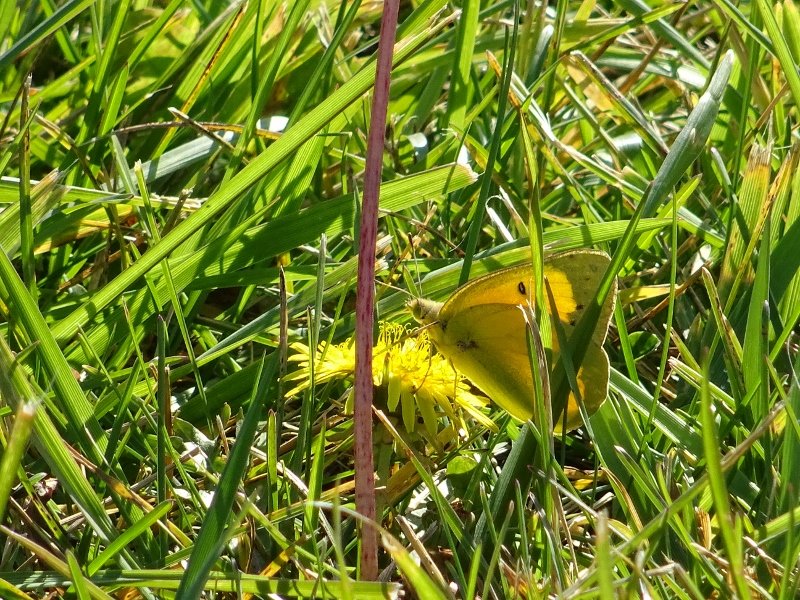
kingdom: Animalia
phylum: Arthropoda
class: Insecta
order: Lepidoptera
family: Pieridae
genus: Colias
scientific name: Colias eurytheme
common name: Orange Sulphur
